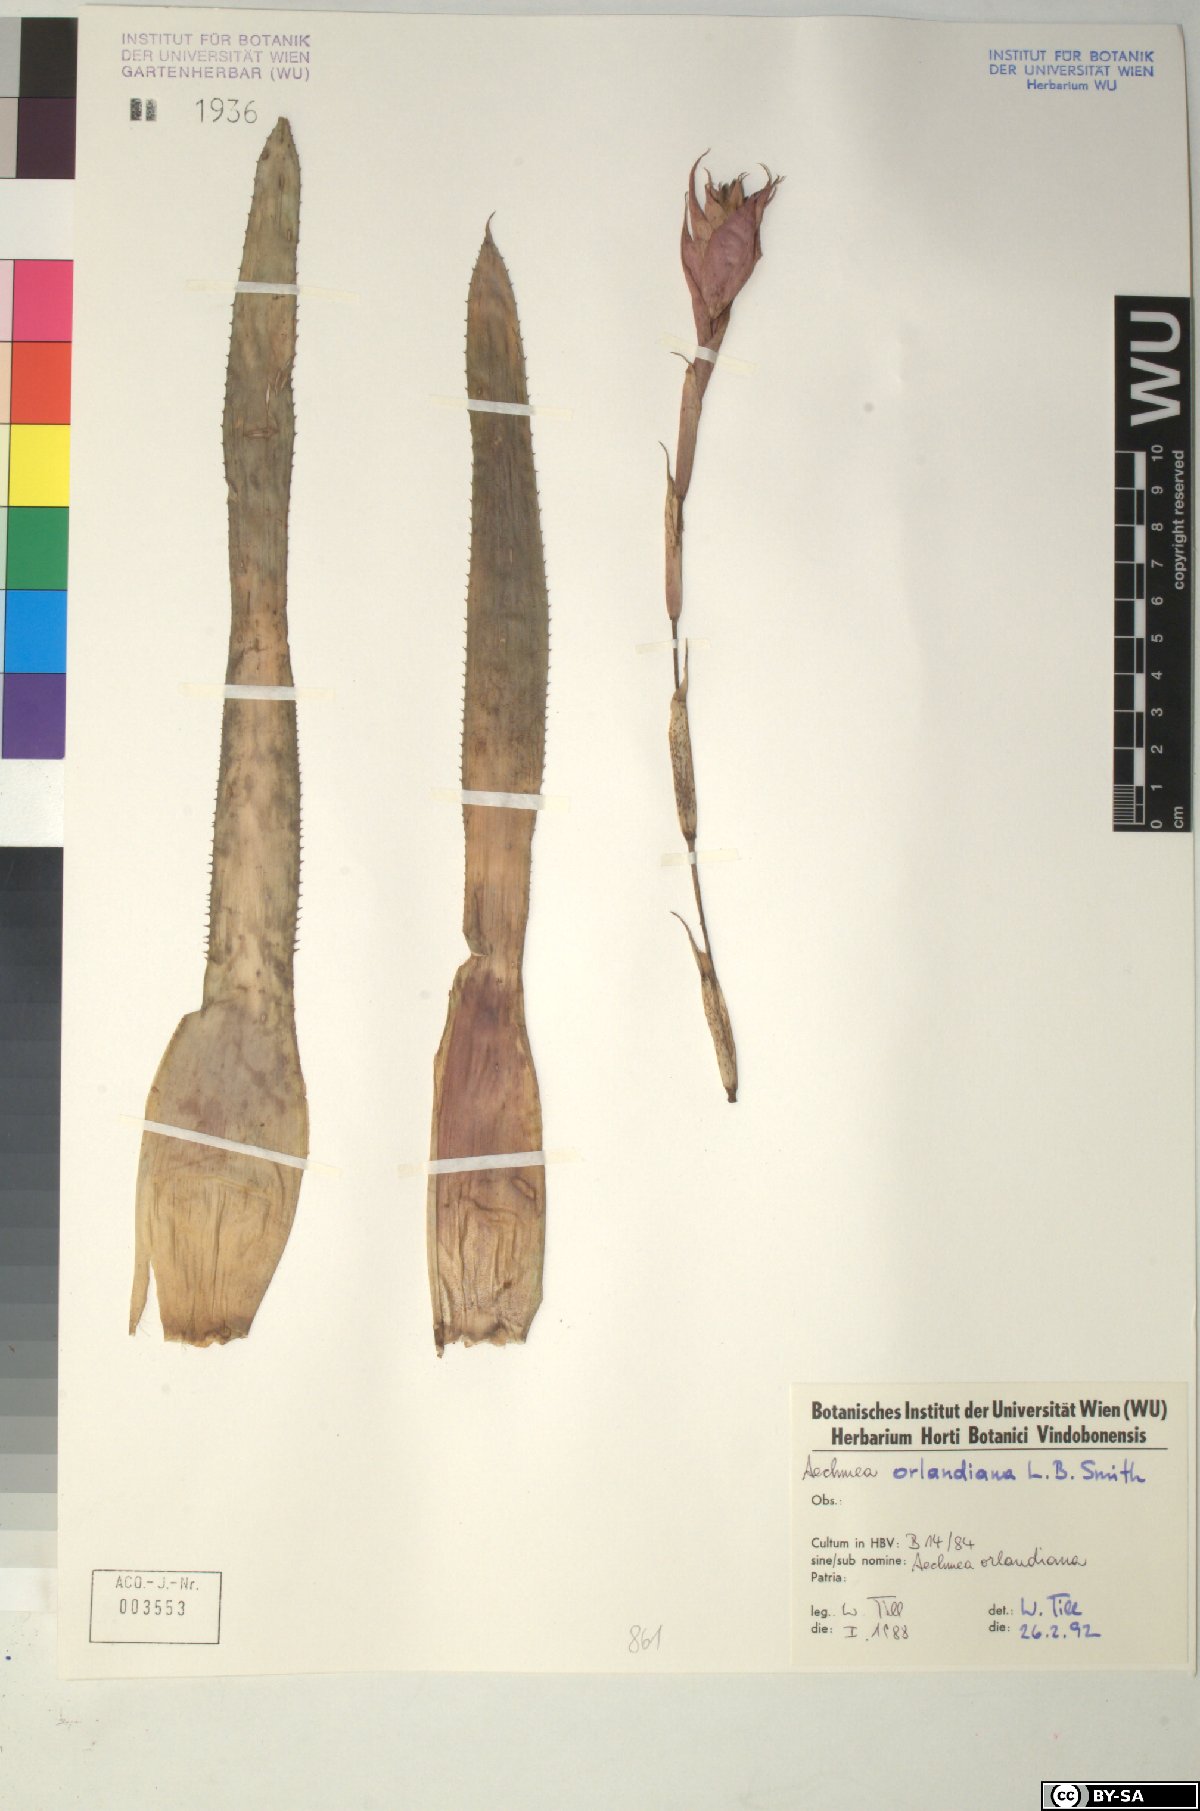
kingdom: Plantae
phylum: Tracheophyta
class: Liliopsida
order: Poales
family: Bromeliaceae
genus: Aechmea
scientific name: Aechmea orlandiana
